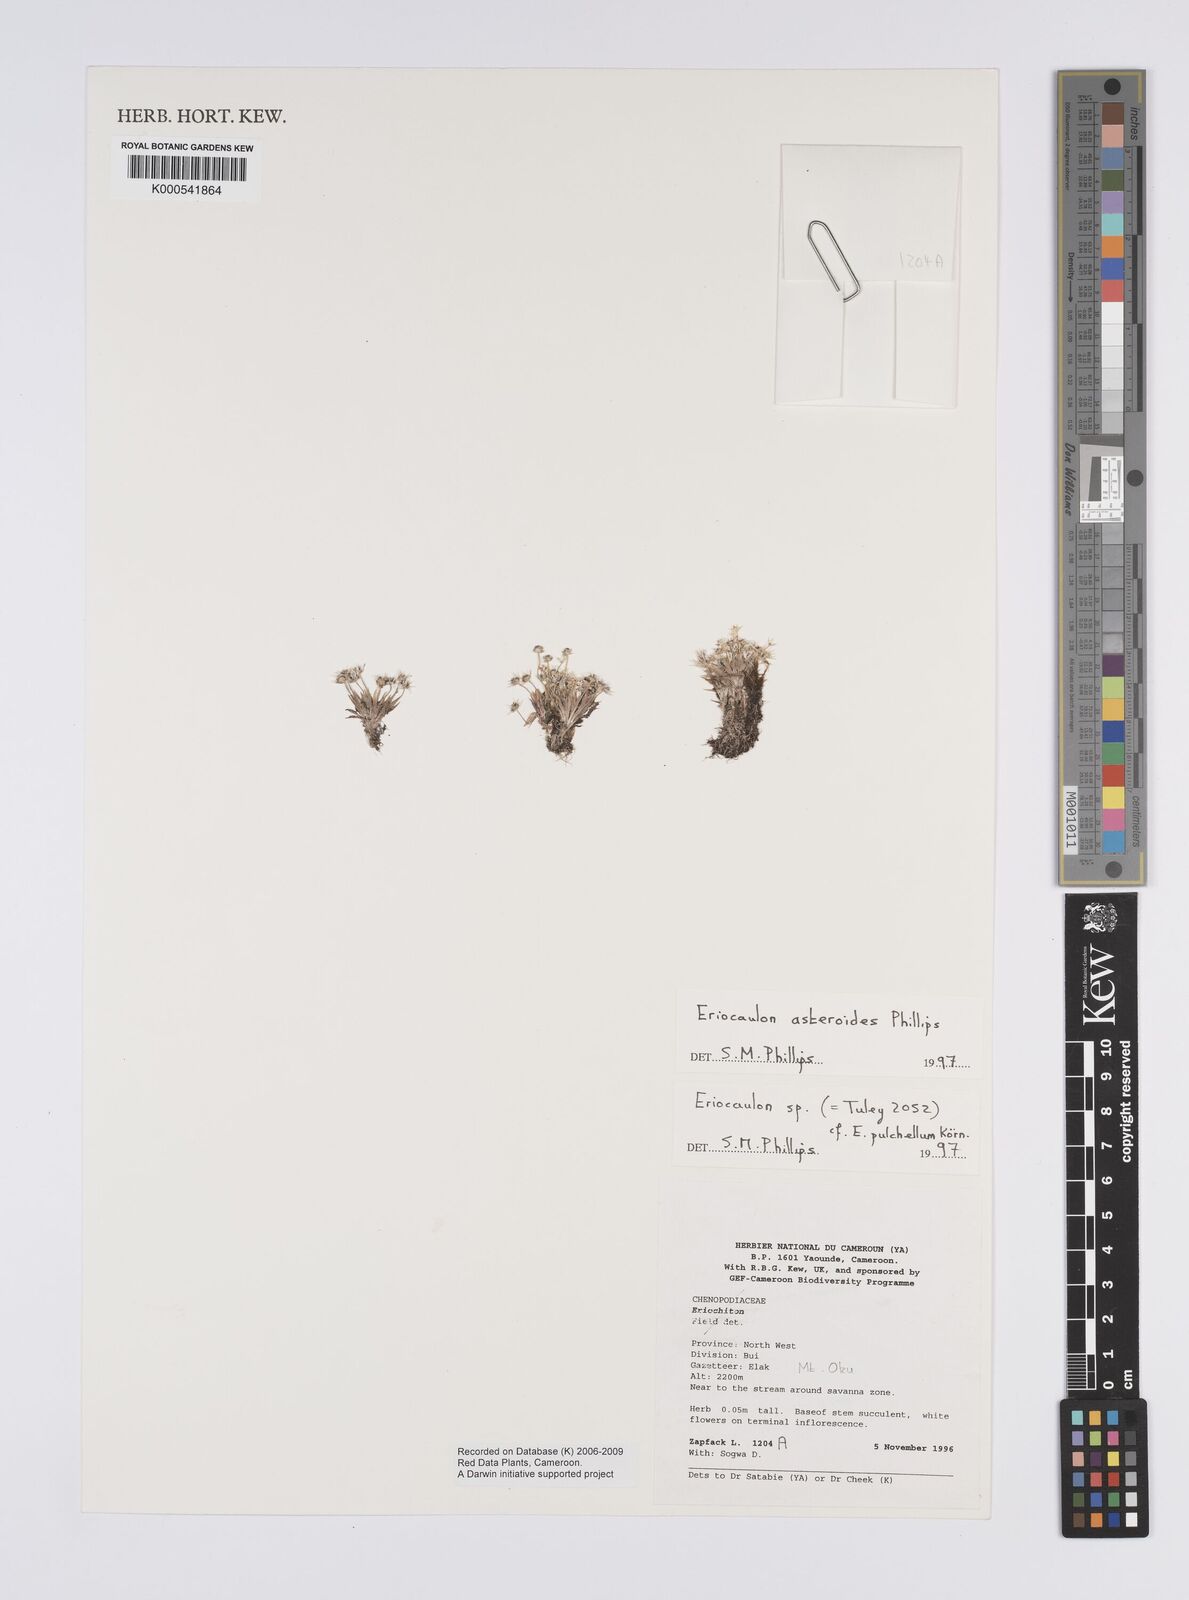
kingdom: Plantae
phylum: Tracheophyta
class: Liliopsida
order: Poales
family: Eriocaulaceae
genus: Eriocaulon
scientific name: Eriocaulon asteroides
